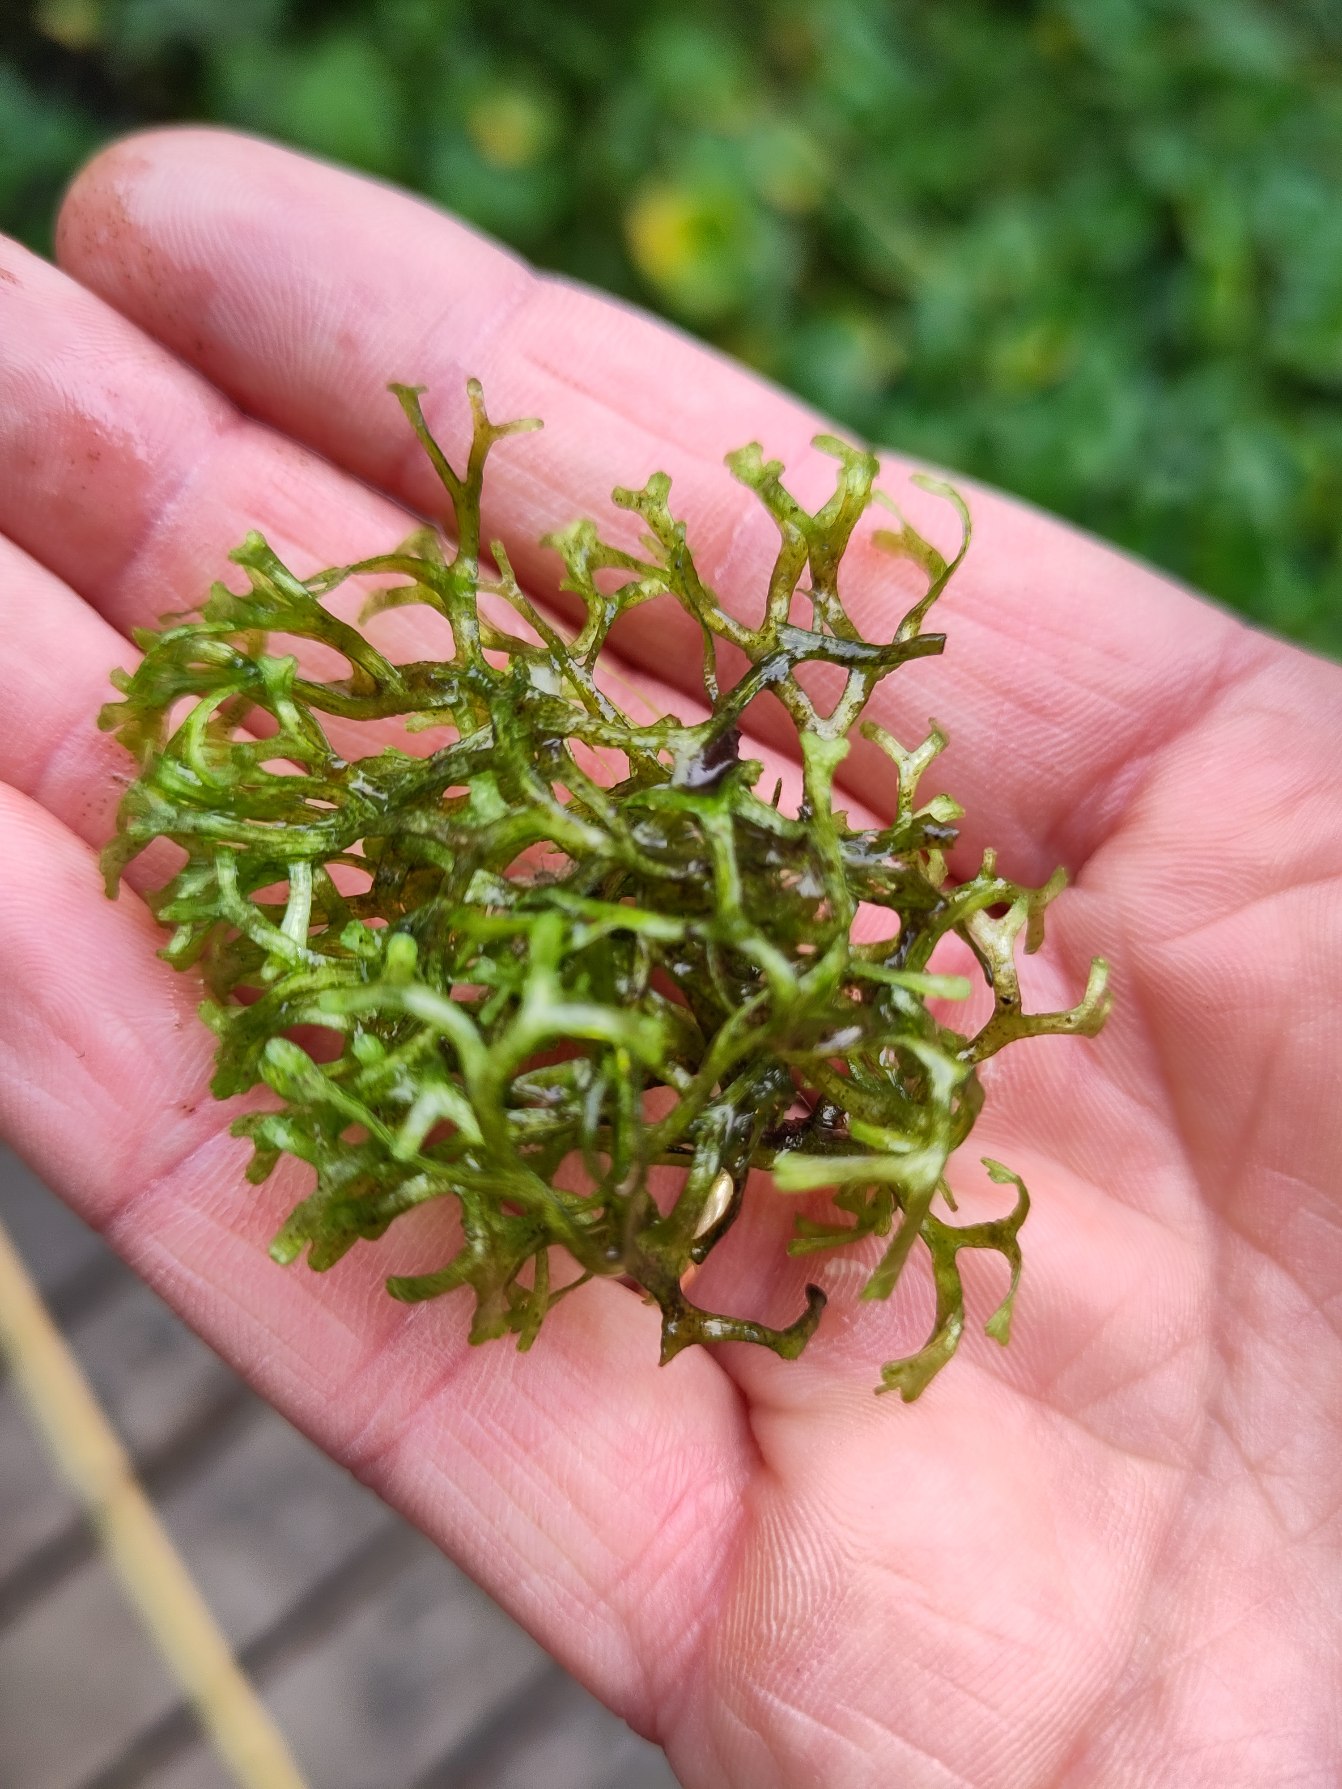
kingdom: Plantae
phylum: Marchantiophyta
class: Marchantiopsida
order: Marchantiales
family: Ricciaceae
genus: Riccia
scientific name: Riccia fluitans
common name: Svømmende stjerneløv
